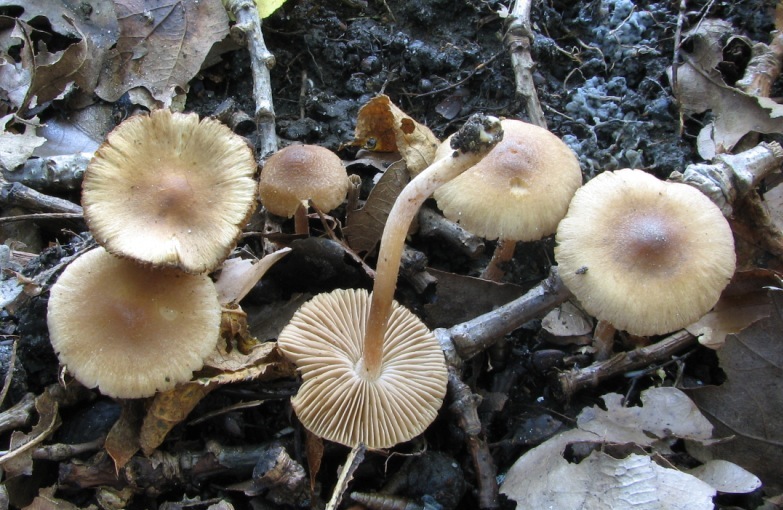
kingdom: Fungi
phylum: Basidiomycota
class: Agaricomycetes
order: Agaricales
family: Inocybaceae
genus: Inocybe
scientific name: Inocybe minimispora
